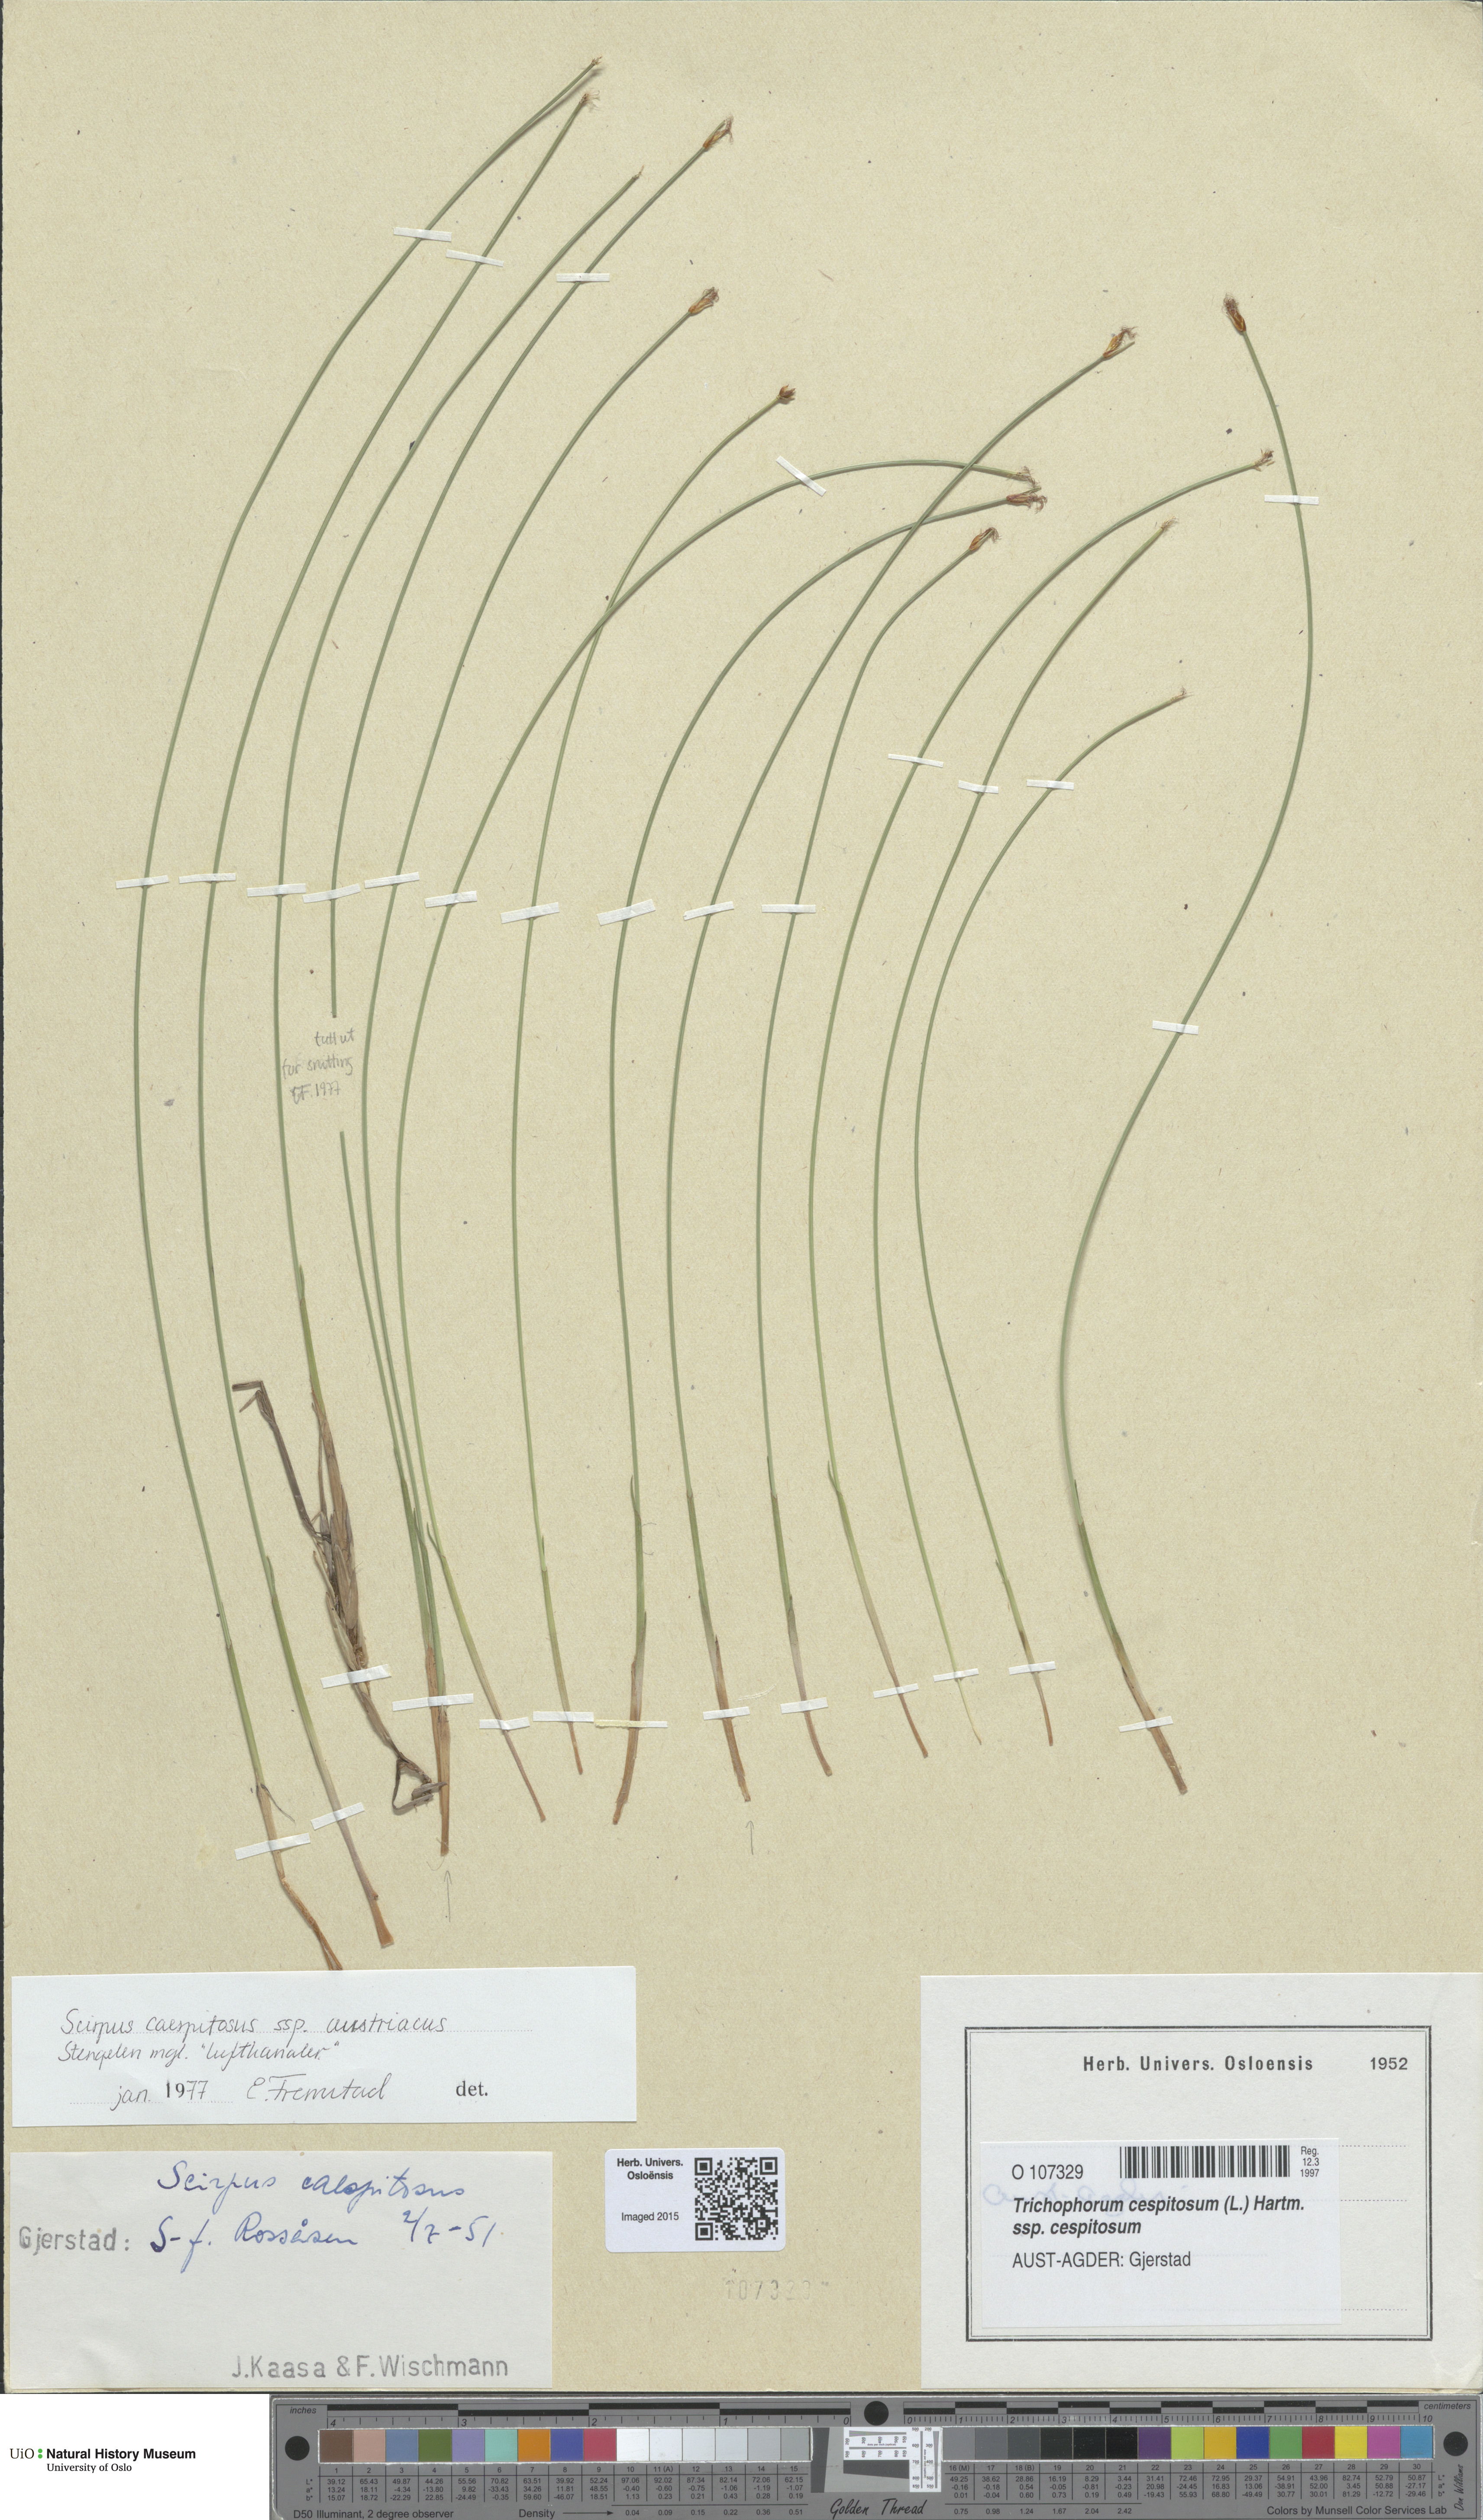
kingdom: Plantae
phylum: Tracheophyta
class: Liliopsida
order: Poales
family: Cyperaceae
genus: Trichophorum
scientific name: Trichophorum cespitosum
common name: Cespitose bulrush
